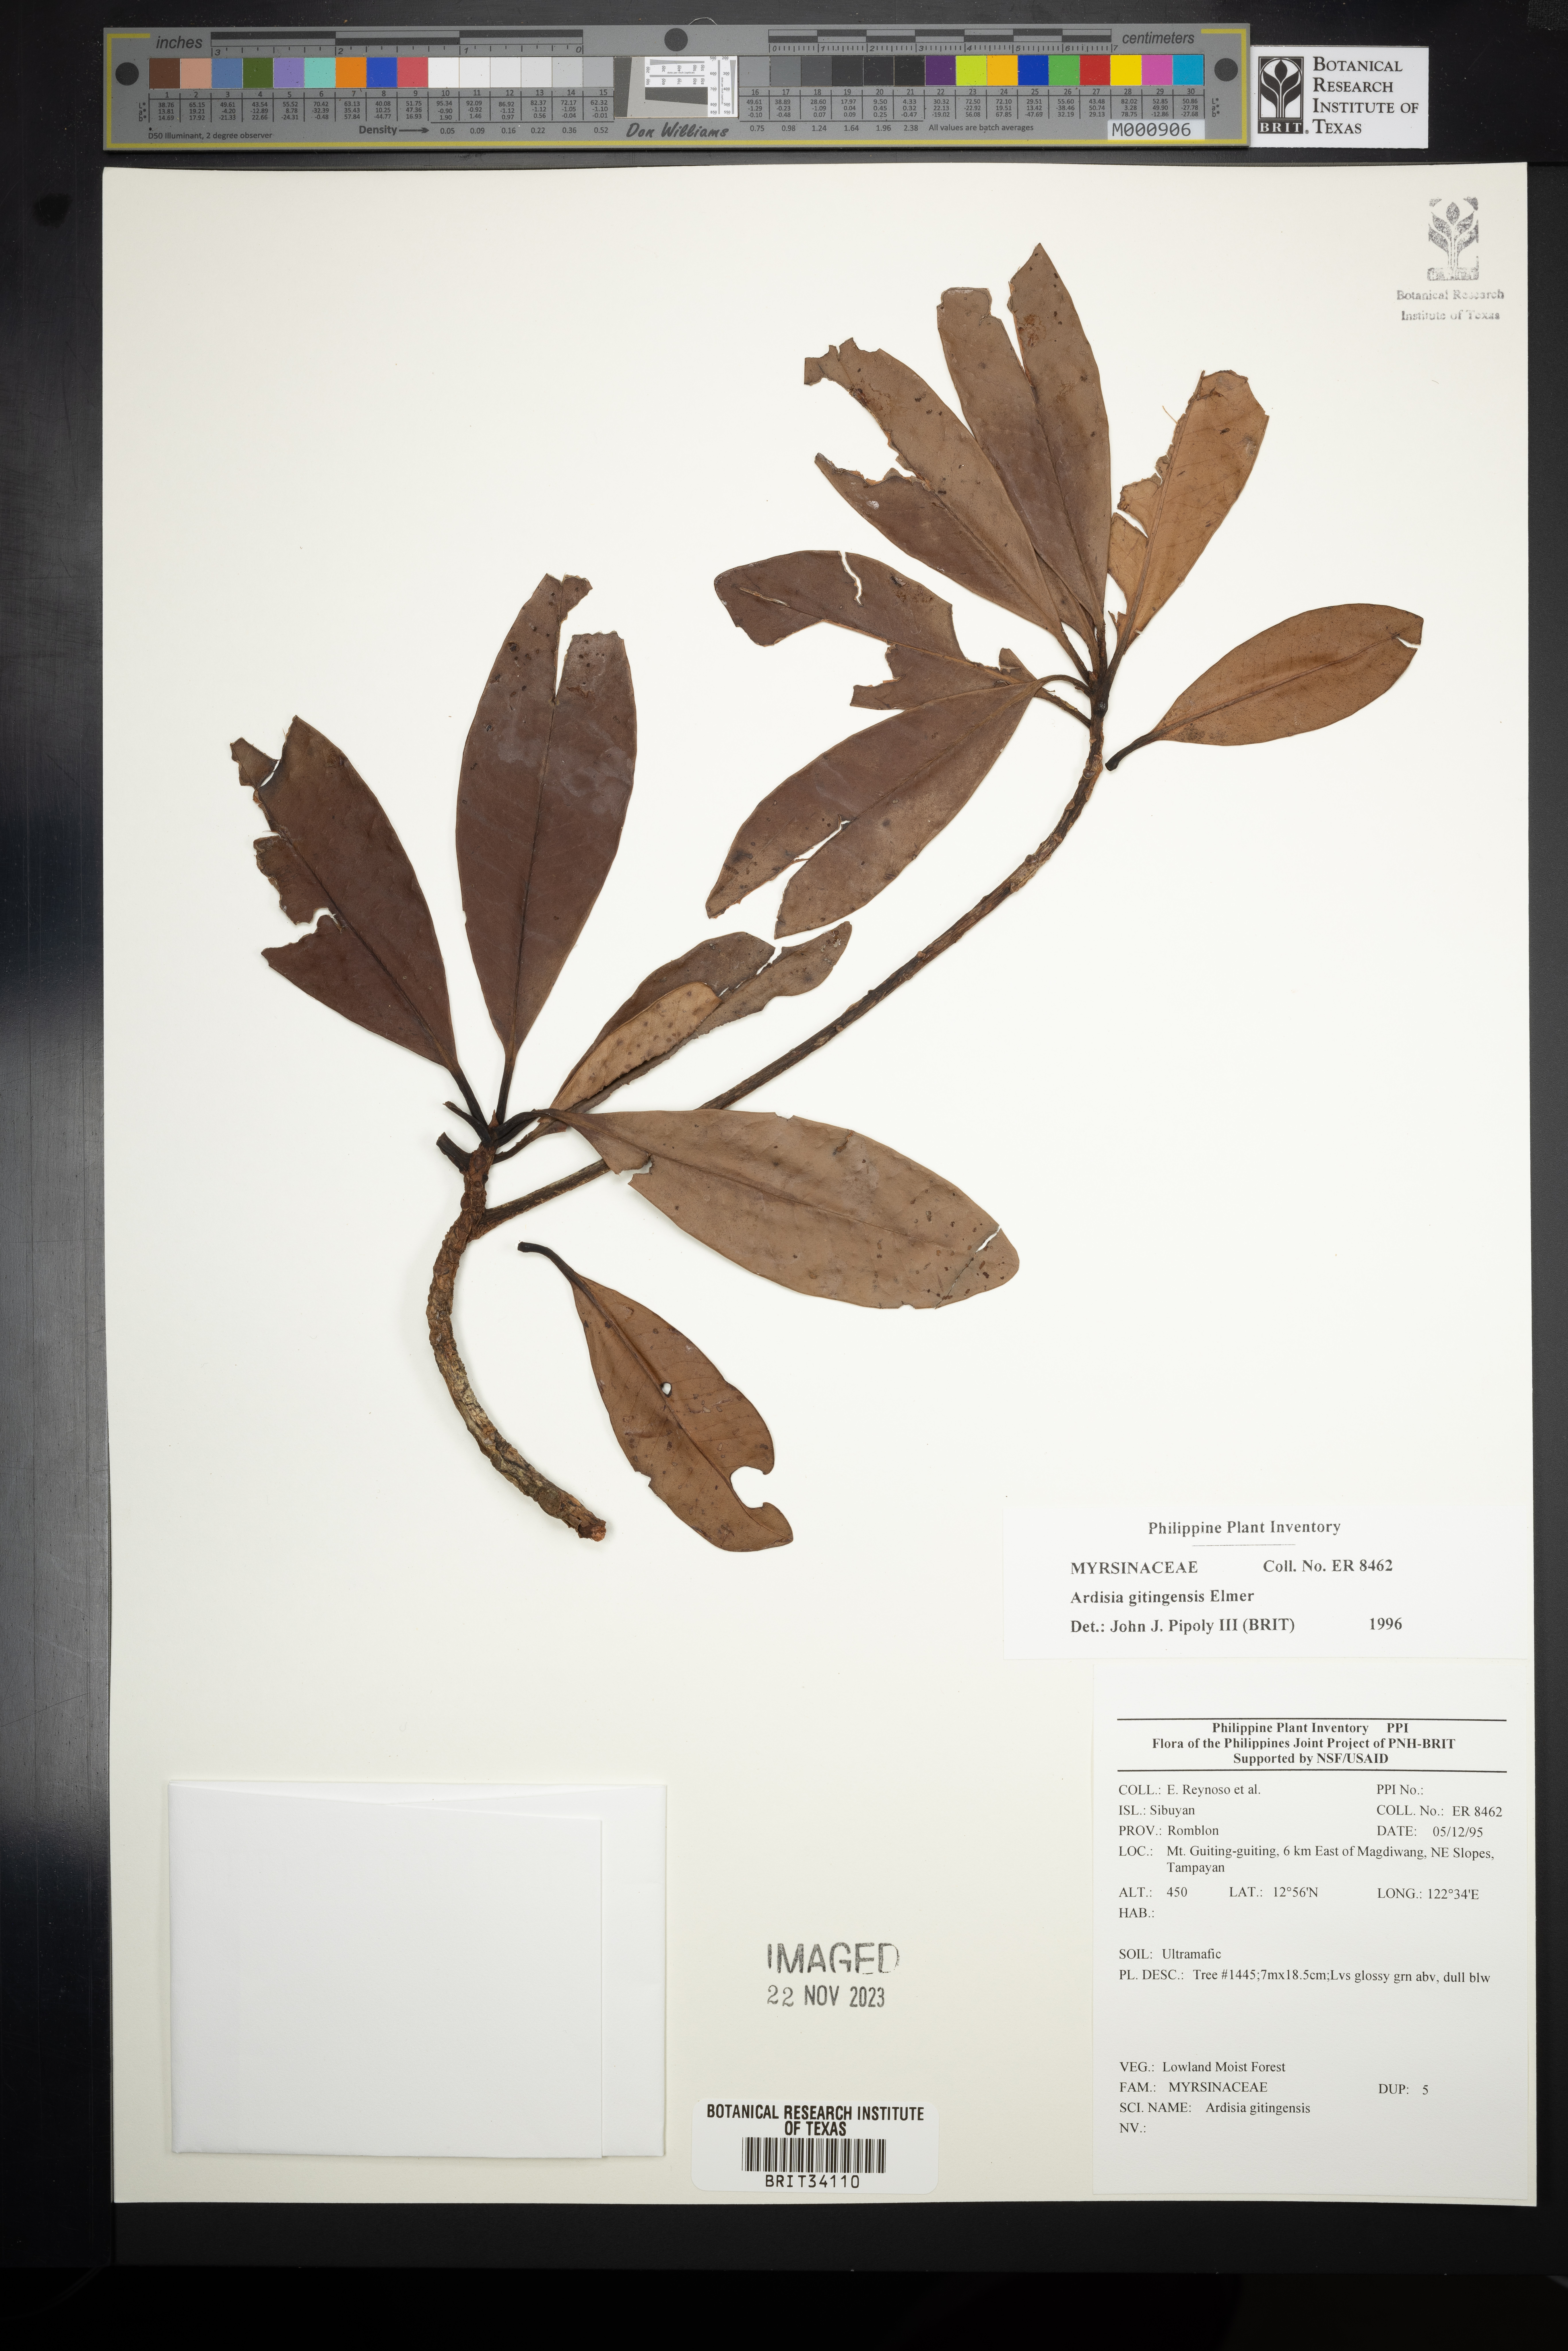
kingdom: Plantae
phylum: Tracheophyta
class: Magnoliopsida
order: Ericales
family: Primulaceae
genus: Ardisia
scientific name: Ardisia darlingii
